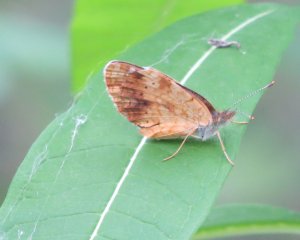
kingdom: Animalia
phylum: Arthropoda
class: Insecta
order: Lepidoptera
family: Nymphalidae
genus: Phyciodes
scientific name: Phyciodes tharos
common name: Northern Crescent
